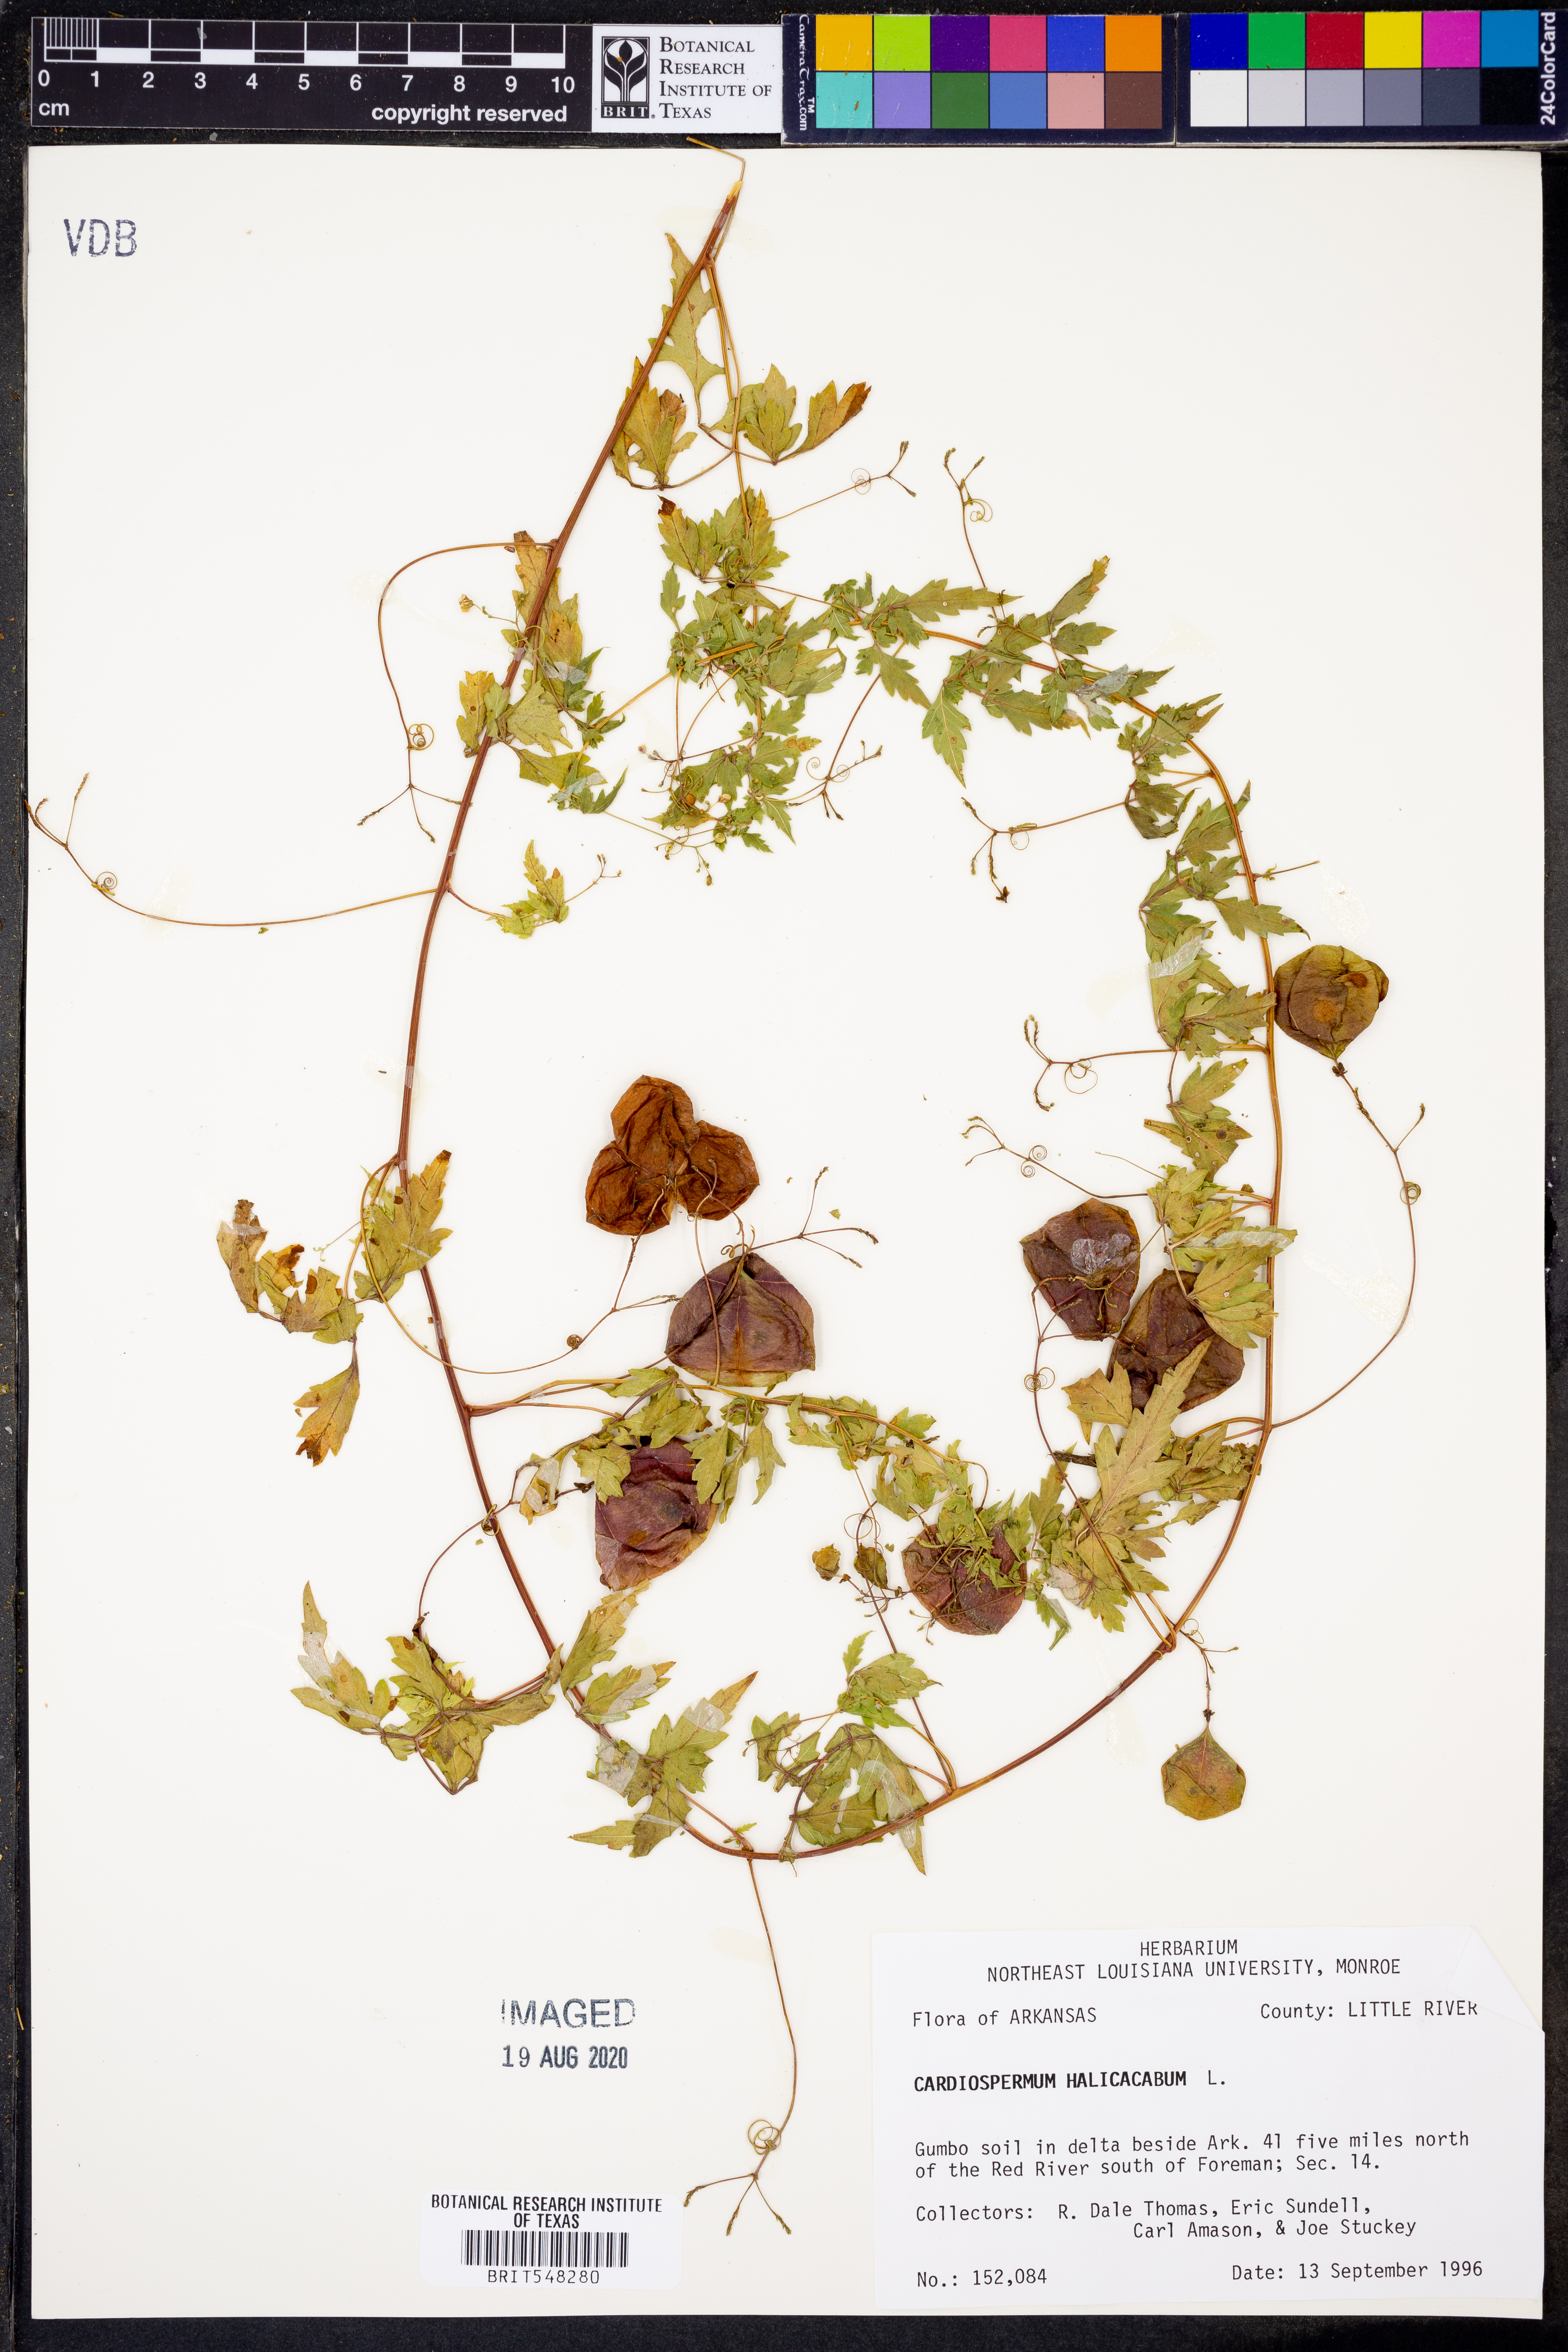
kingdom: Plantae
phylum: Tracheophyta
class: Magnoliopsida
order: Sapindales
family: Sapindaceae
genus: Cardiospermum
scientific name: Cardiospermum halicacabum
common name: Balloon vine
